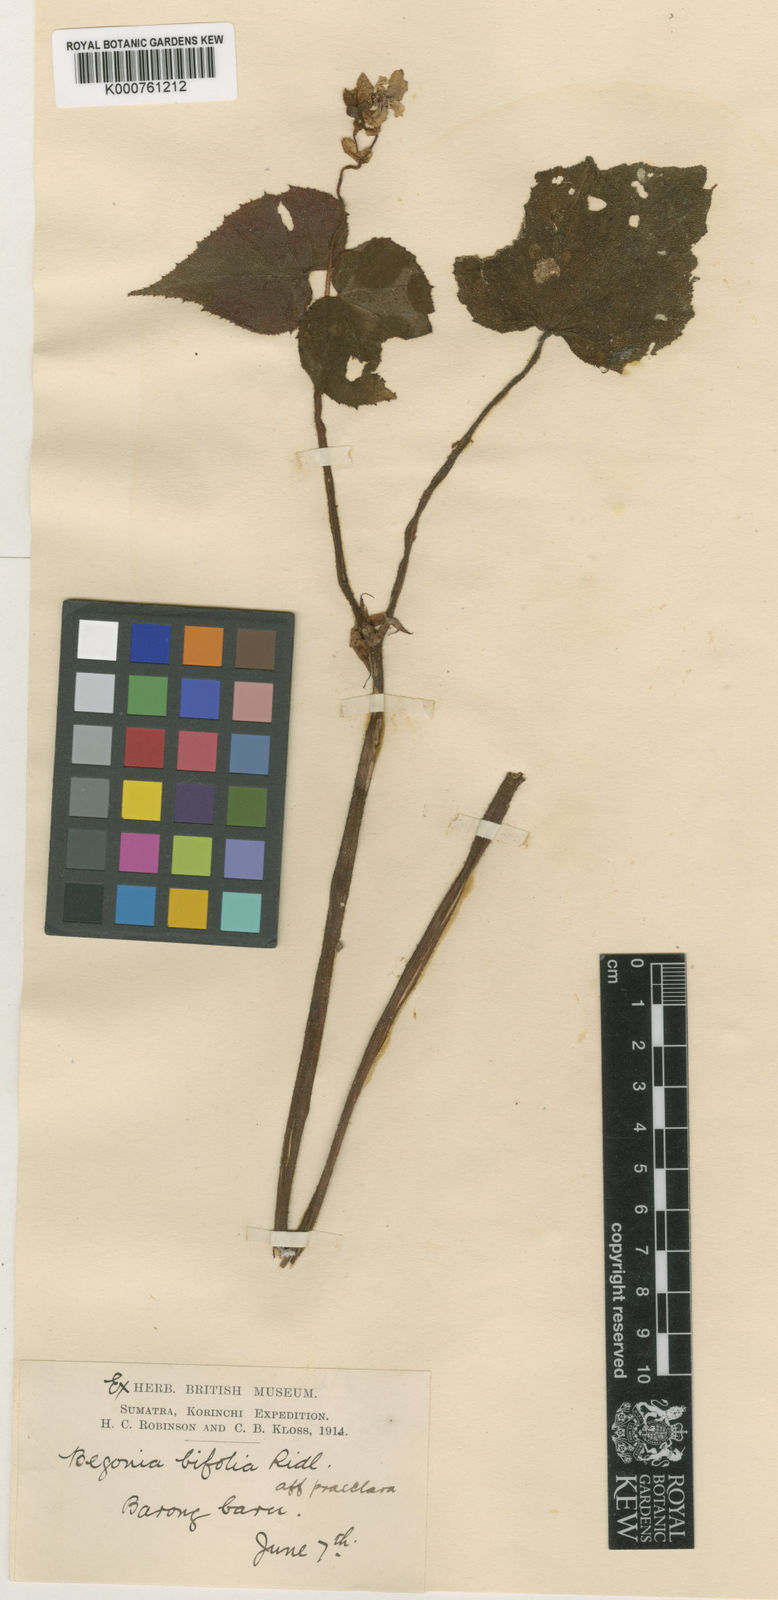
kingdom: Plantae
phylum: Tracheophyta
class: Magnoliopsida
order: Cucurbitales
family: Begoniaceae
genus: Begonia
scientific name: Begonia bifolia
